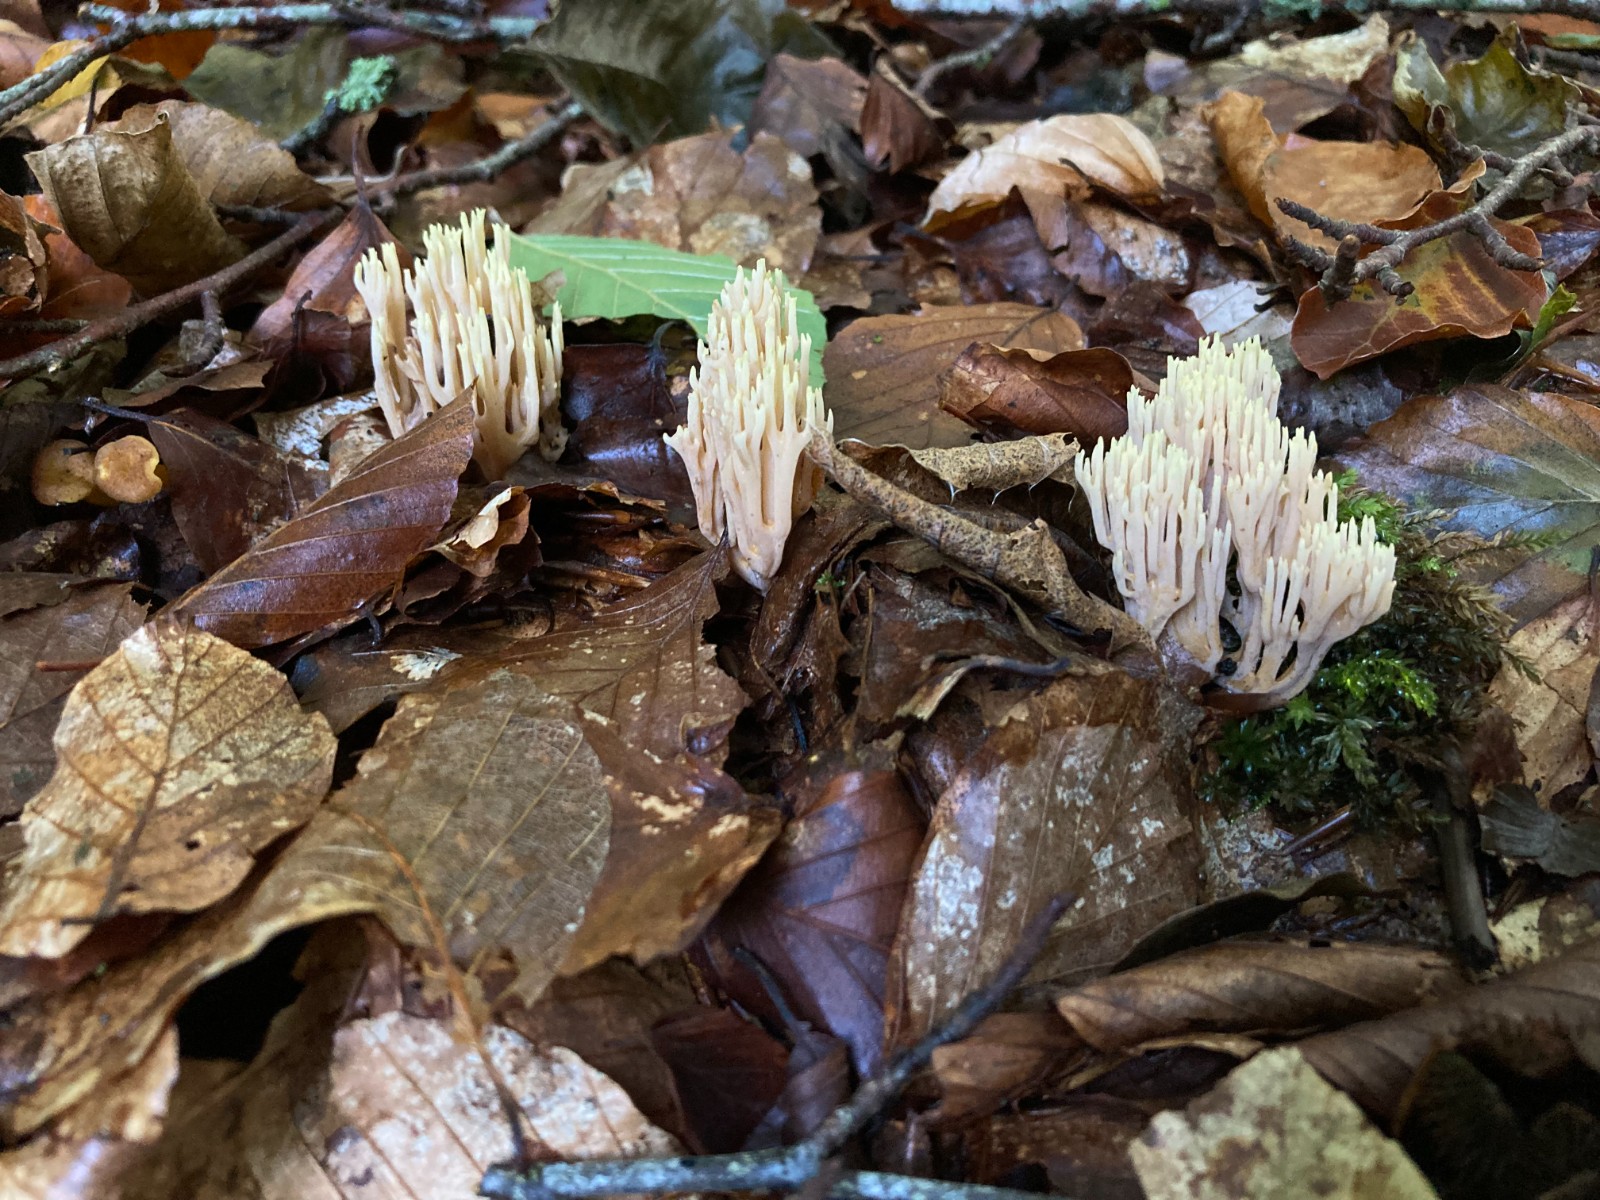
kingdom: Fungi
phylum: Basidiomycota
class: Agaricomycetes
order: Gomphales
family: Gomphaceae
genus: Ramaria
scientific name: Ramaria stricta
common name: rank koralsvamp
